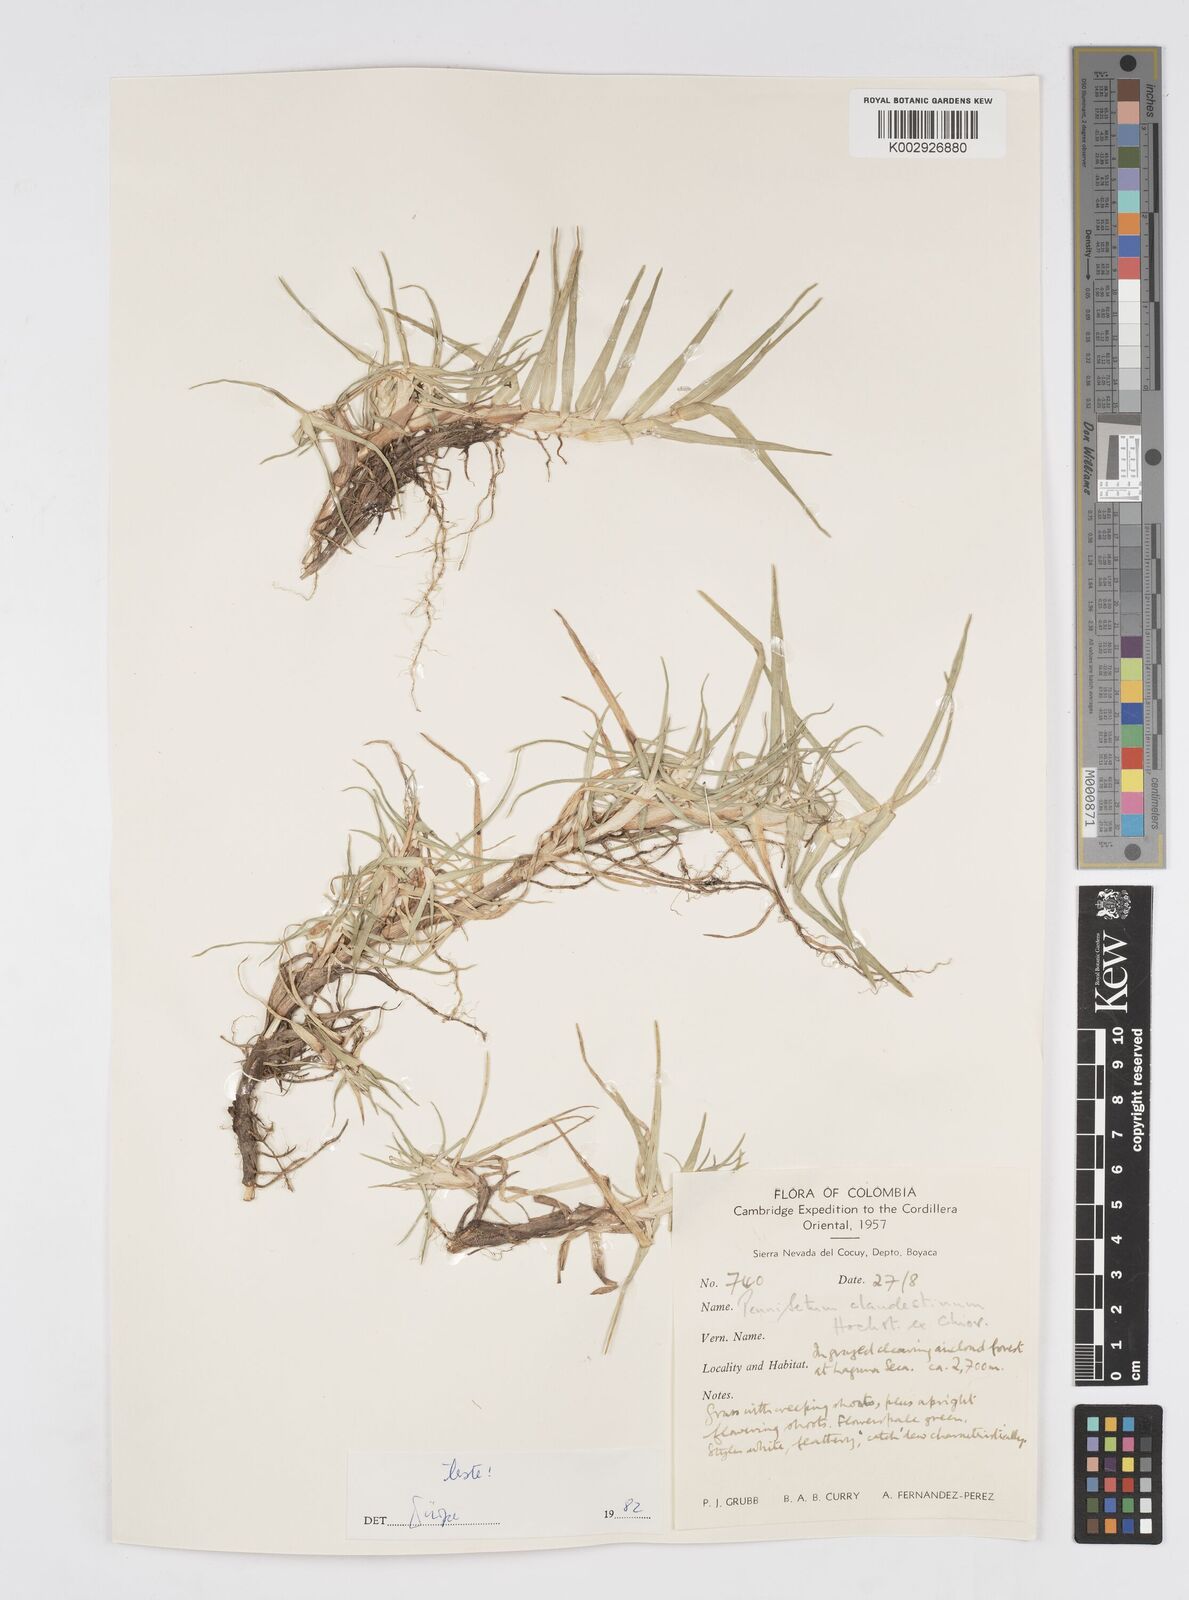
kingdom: Plantae
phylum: Tracheophyta
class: Liliopsida
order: Poales
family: Poaceae
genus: Cenchrus
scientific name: Cenchrus clandestinus
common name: Kikuyugrass
